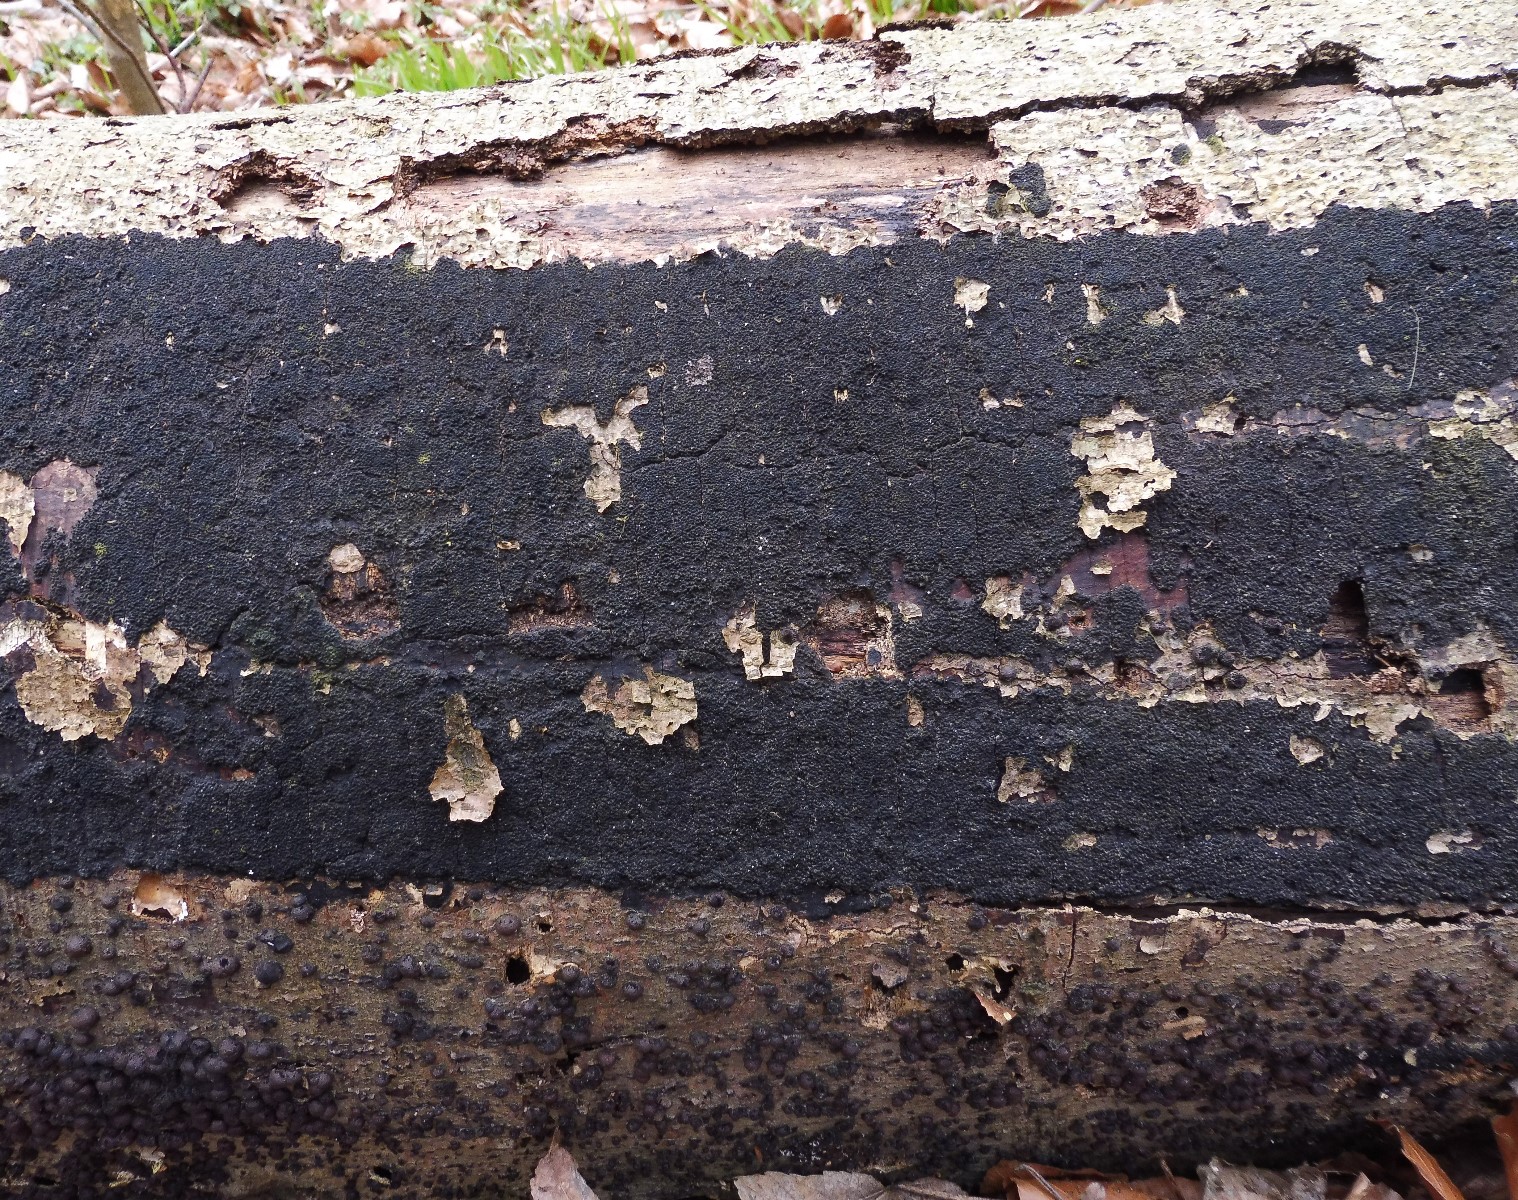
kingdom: Fungi
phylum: Ascomycota
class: Sordariomycetes
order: Xylariales
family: Diatrypaceae
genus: Eutypa
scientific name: Eutypa spinosa
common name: grov kulskorpe
